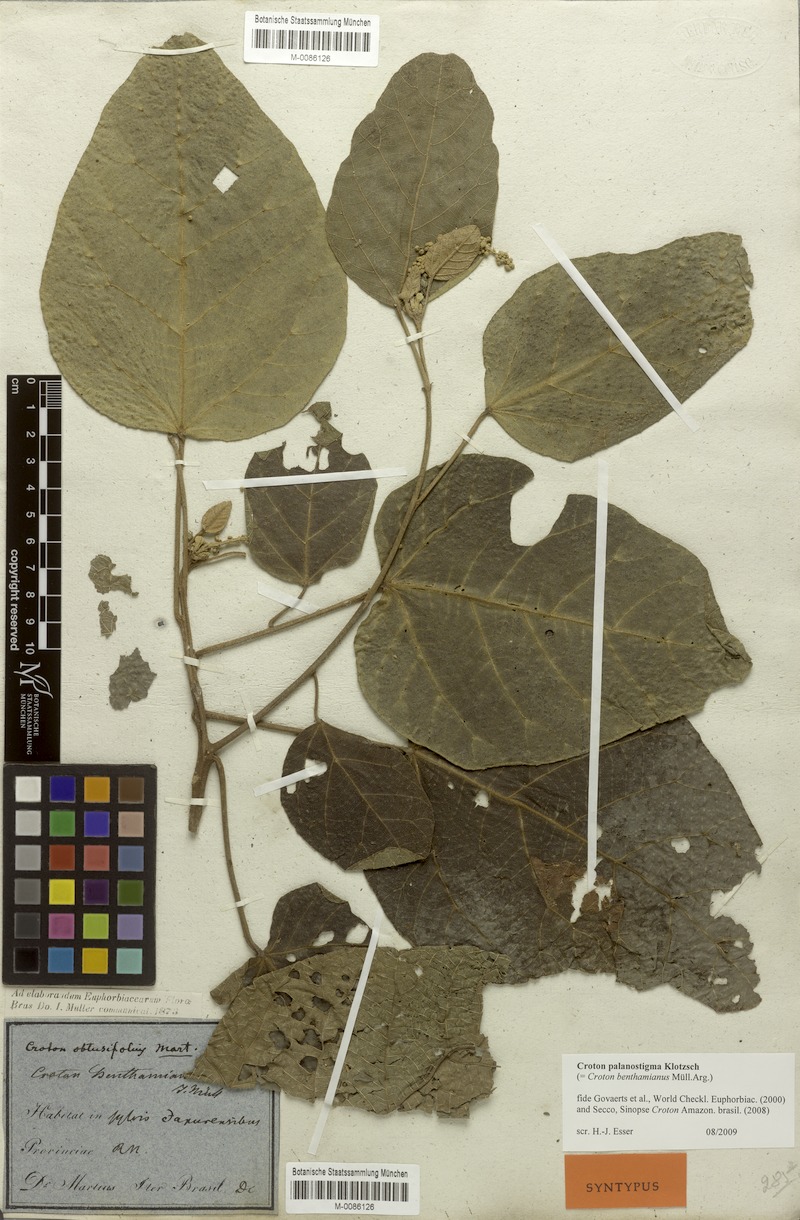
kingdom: Plantae
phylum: Tracheophyta
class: Magnoliopsida
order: Malpighiales
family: Euphorbiaceae
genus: Croton
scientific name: Croton palanostigma
